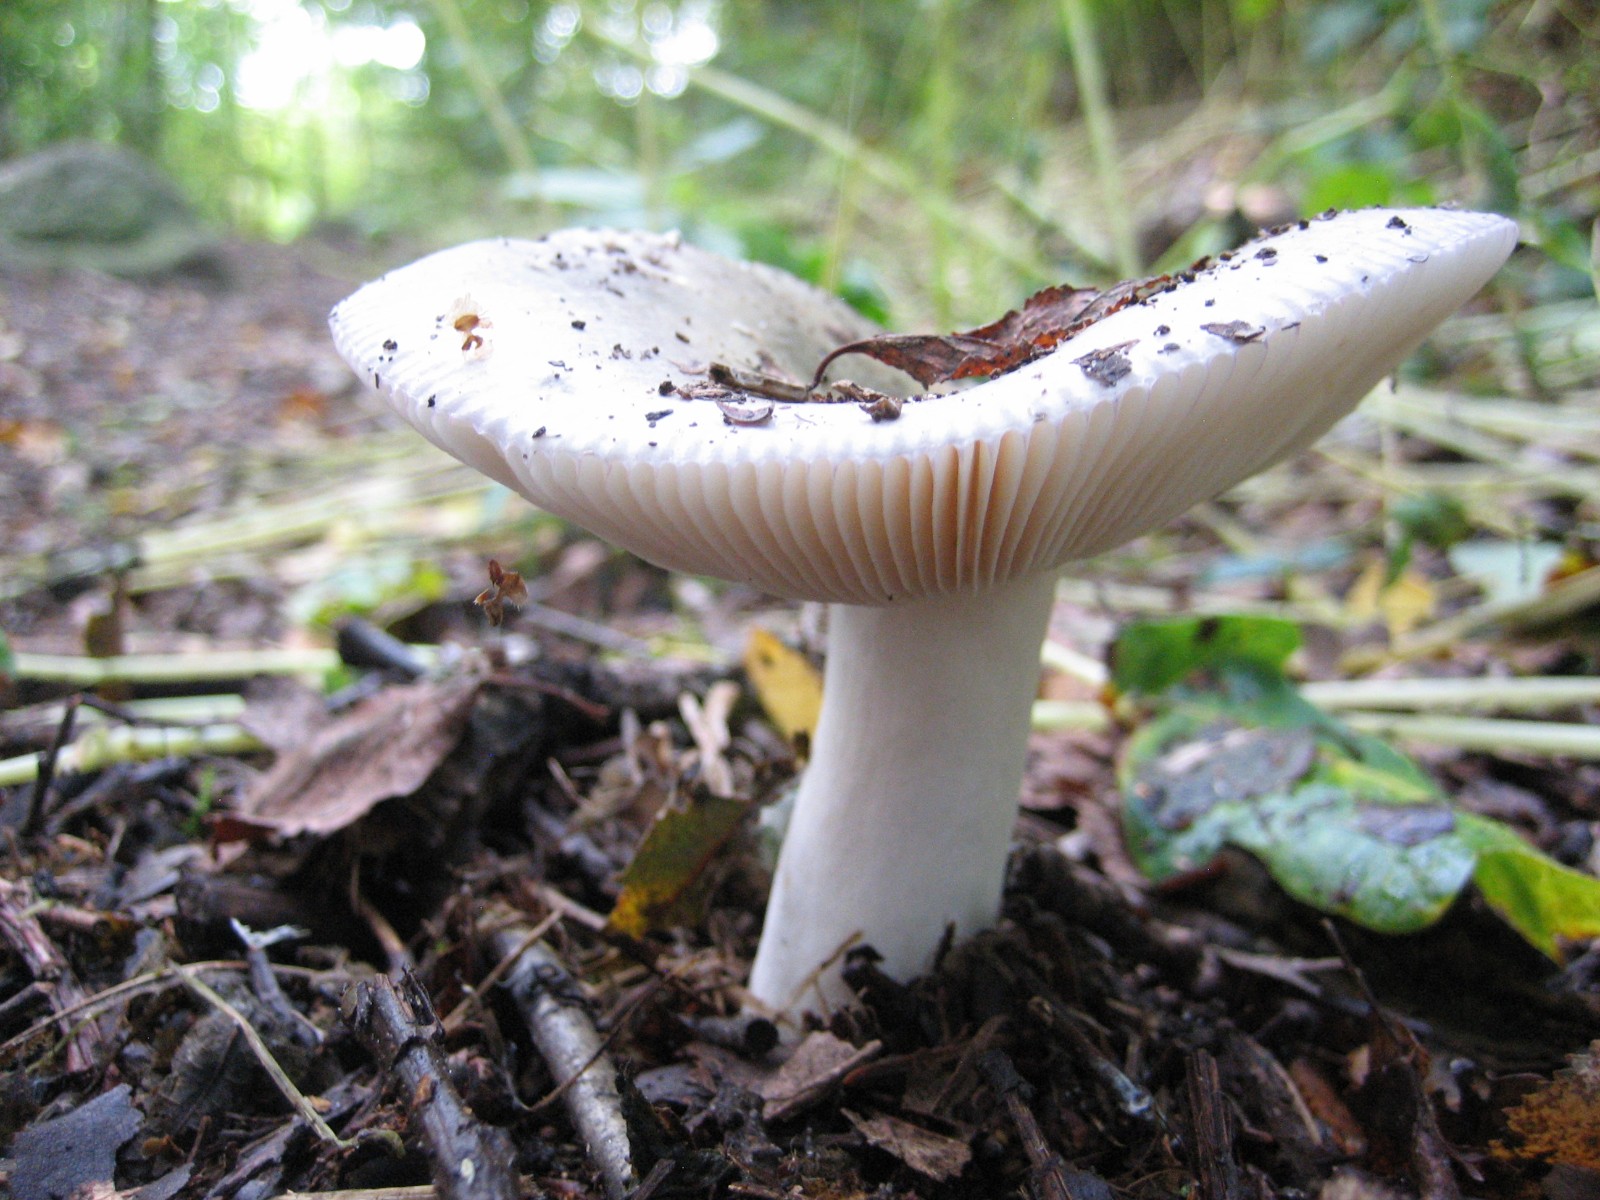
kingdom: Fungi
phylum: Basidiomycota
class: Agaricomycetes
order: Russulales
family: Russulaceae
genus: Russula
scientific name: Russula aeruginea
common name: græsgrøn skørhat
